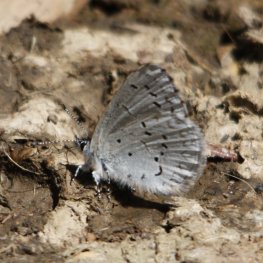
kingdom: Animalia
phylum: Arthropoda
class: Insecta
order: Lepidoptera
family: Lycaenidae
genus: Celastrina
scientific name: Celastrina ladon
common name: Echo Azure
